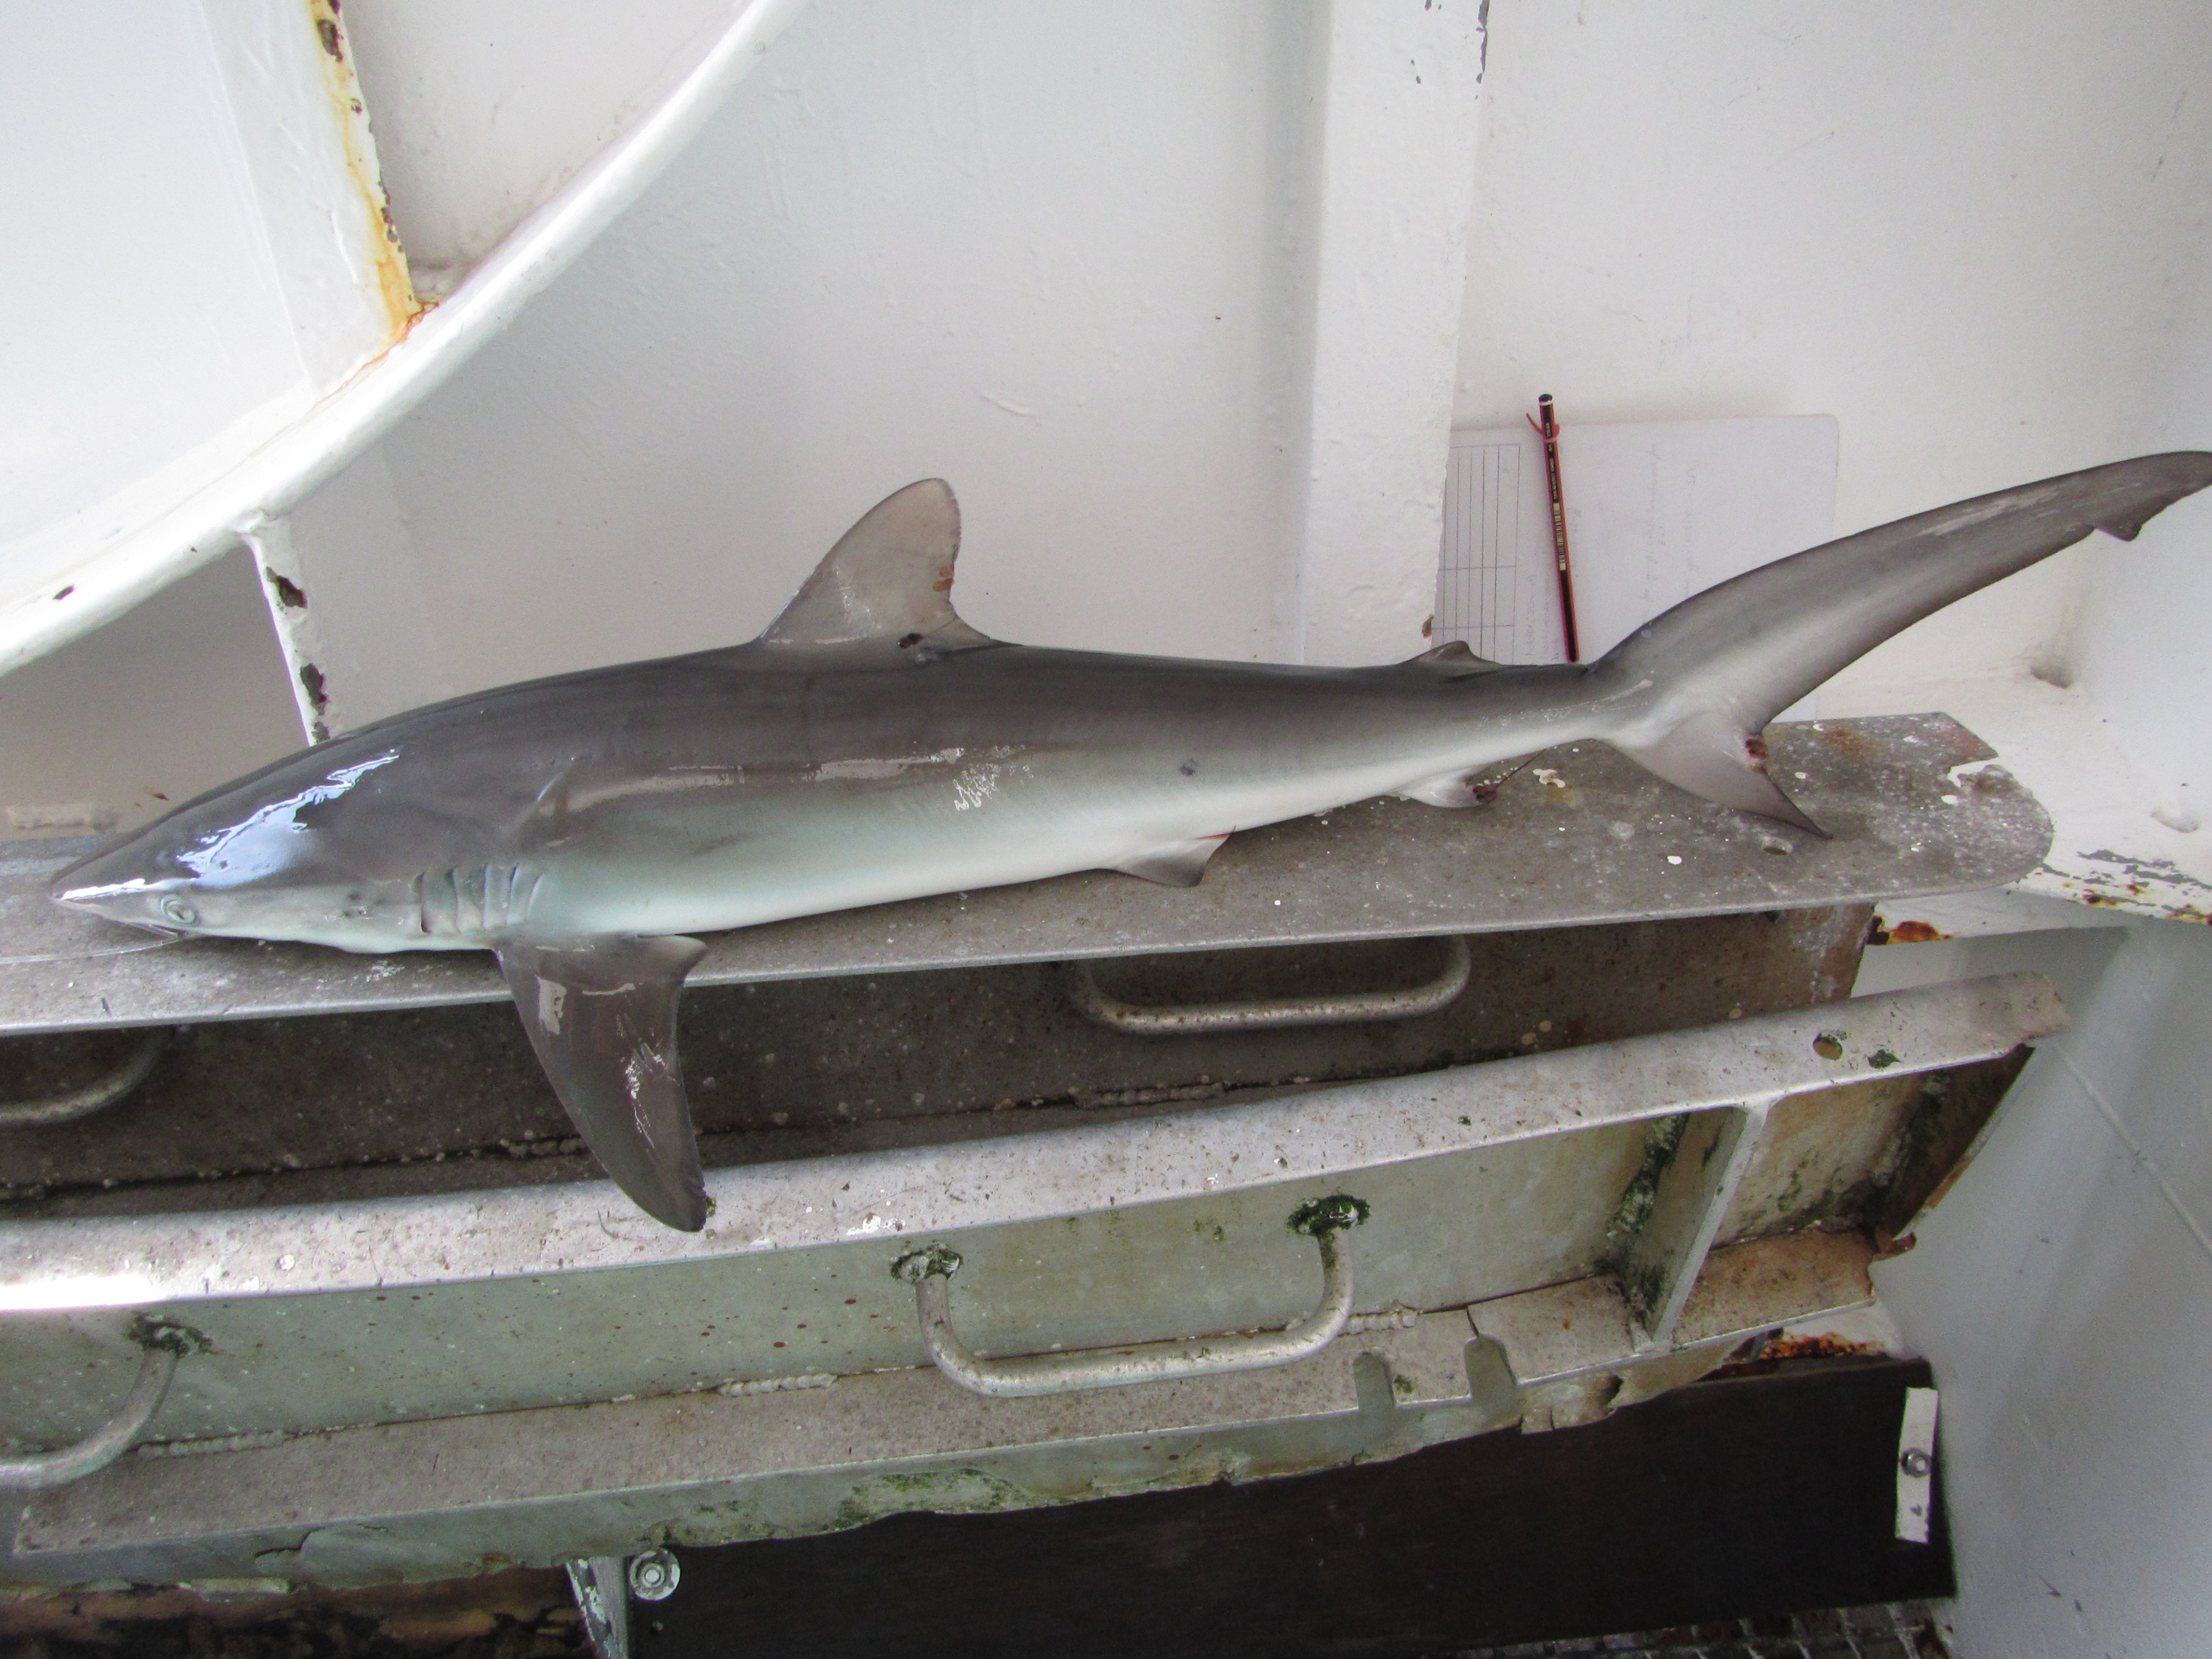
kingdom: Animalia
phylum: Chordata
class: Elasmobranchii
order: Carcharhiniformes
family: Carcharhinidae
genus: Carcharhinus
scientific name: Carcharhinus falciformis
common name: Silky shark
